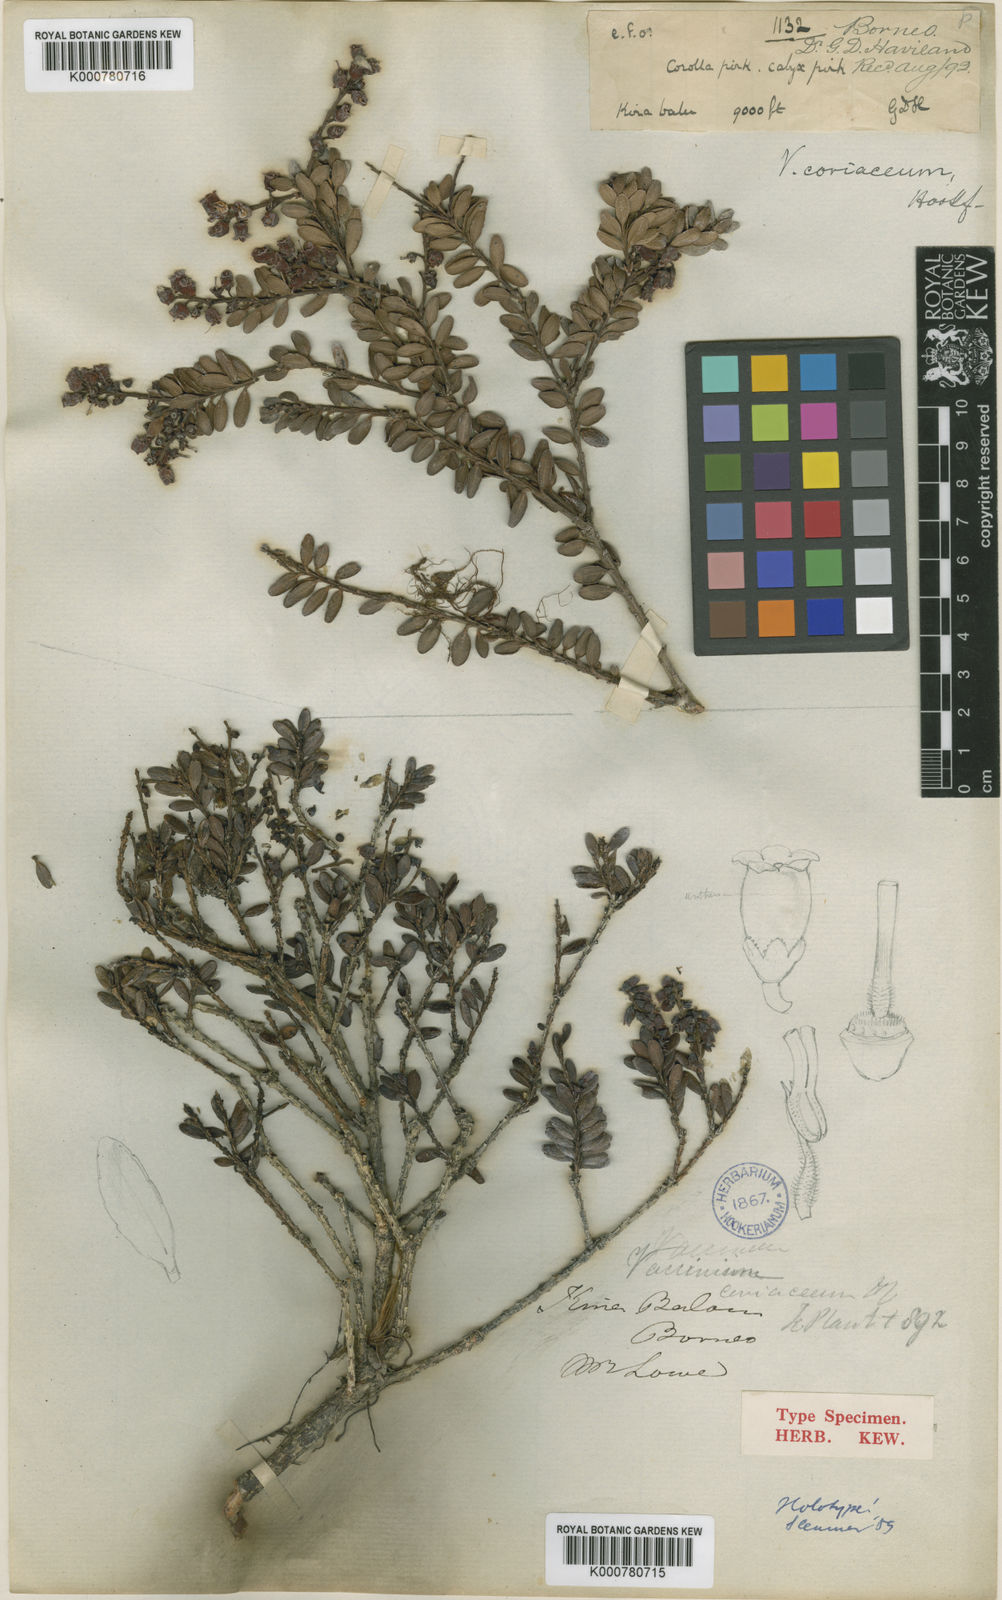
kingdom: Plantae
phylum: Tracheophyta
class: Magnoliopsida
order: Ericales
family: Ericaceae
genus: Vaccinium
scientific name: Vaccinium coriaceum
